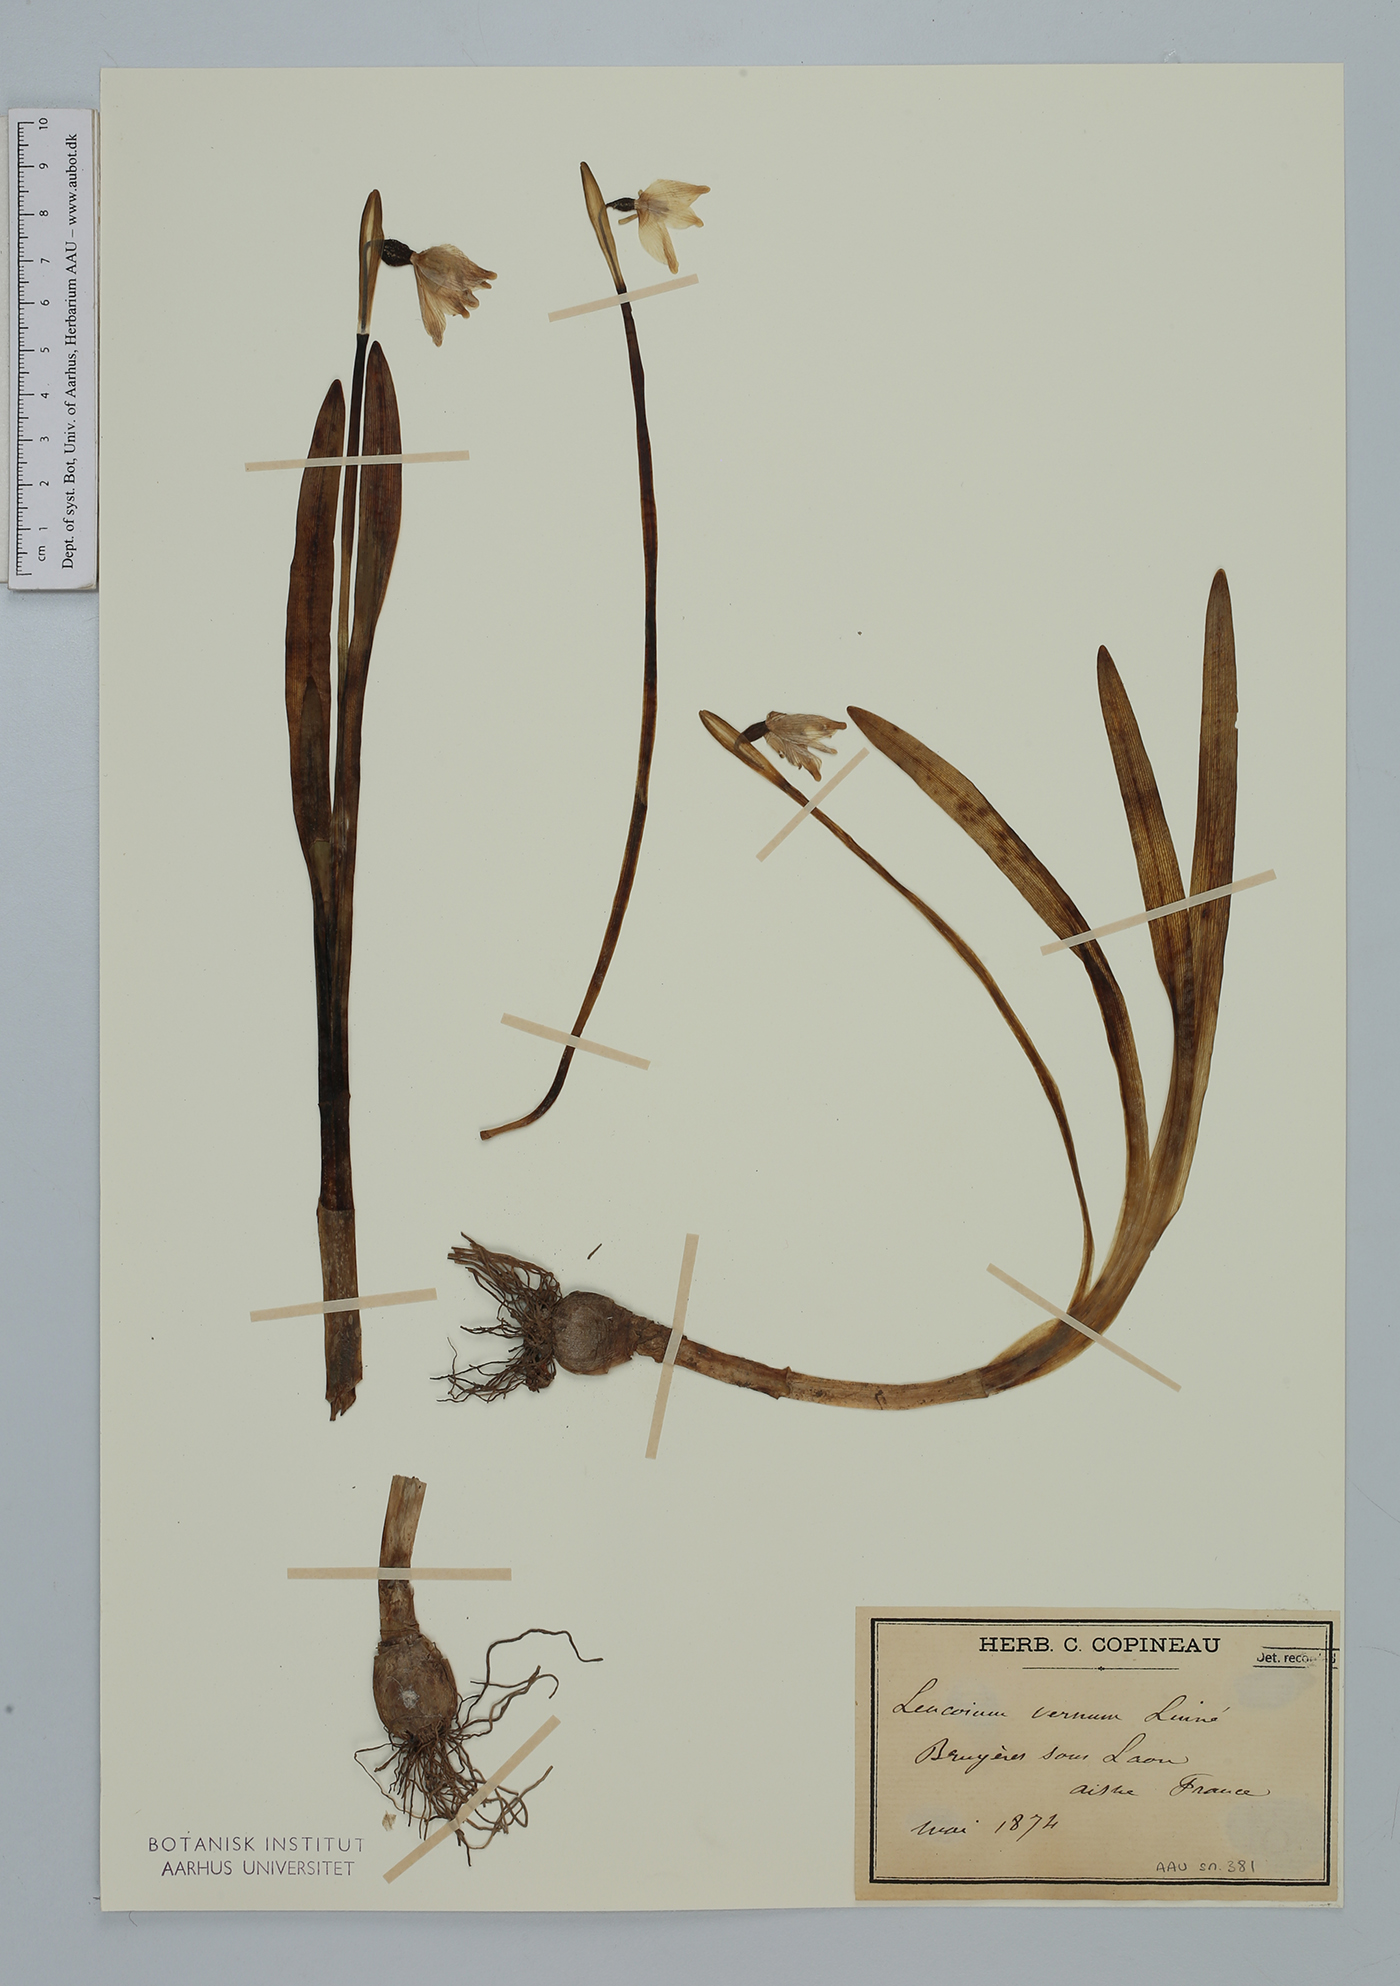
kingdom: Plantae
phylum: Tracheophyta
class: Liliopsida
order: Asparagales
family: Amaryllidaceae
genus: Leucojum
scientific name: Leucojum vernum
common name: Spring snowflake
